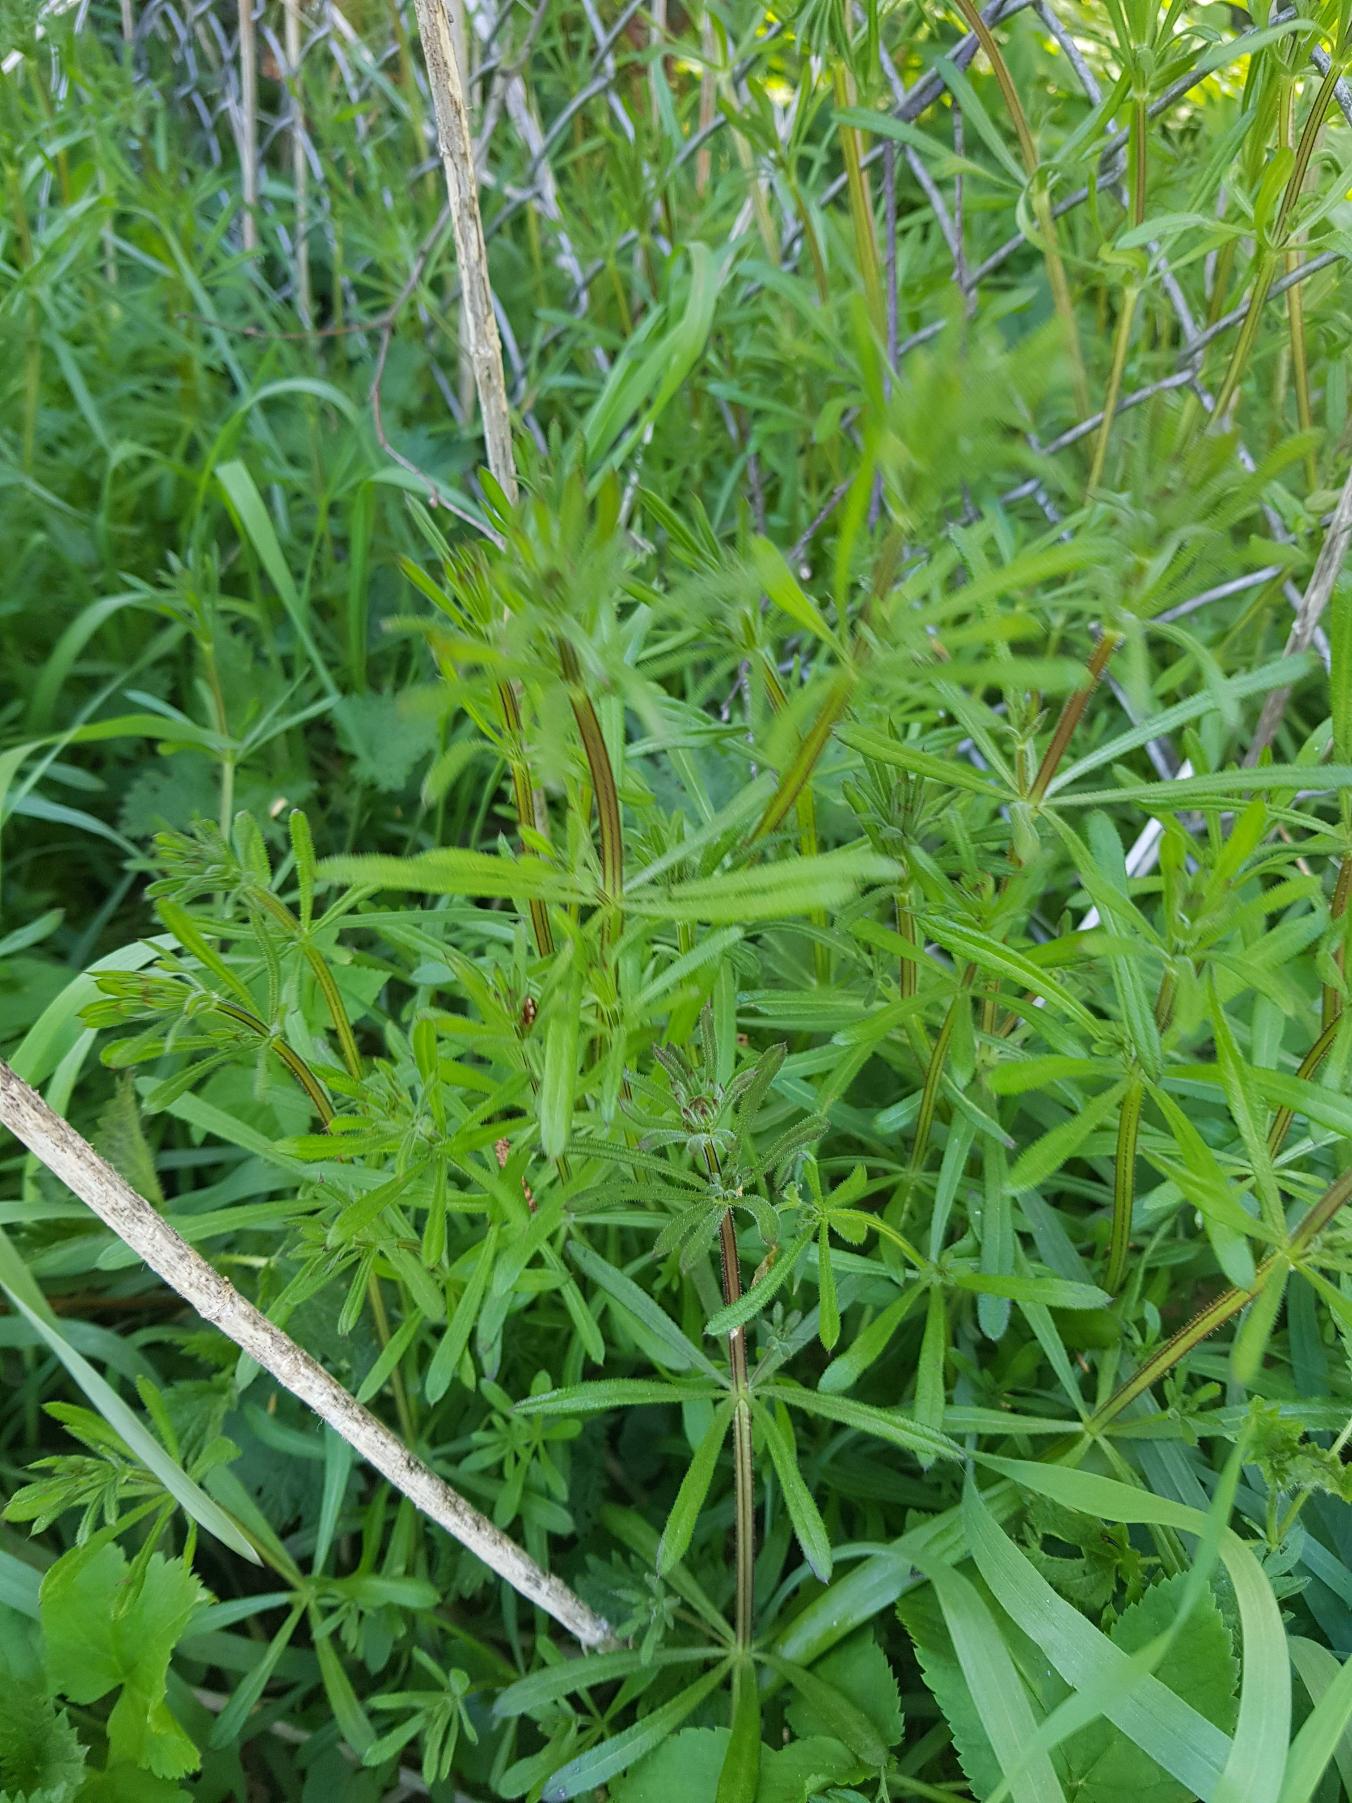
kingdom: Plantae
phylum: Tracheophyta
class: Magnoliopsida
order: Gentianales
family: Rubiaceae
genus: Galium
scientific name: Galium aparine
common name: Burre-snerre
